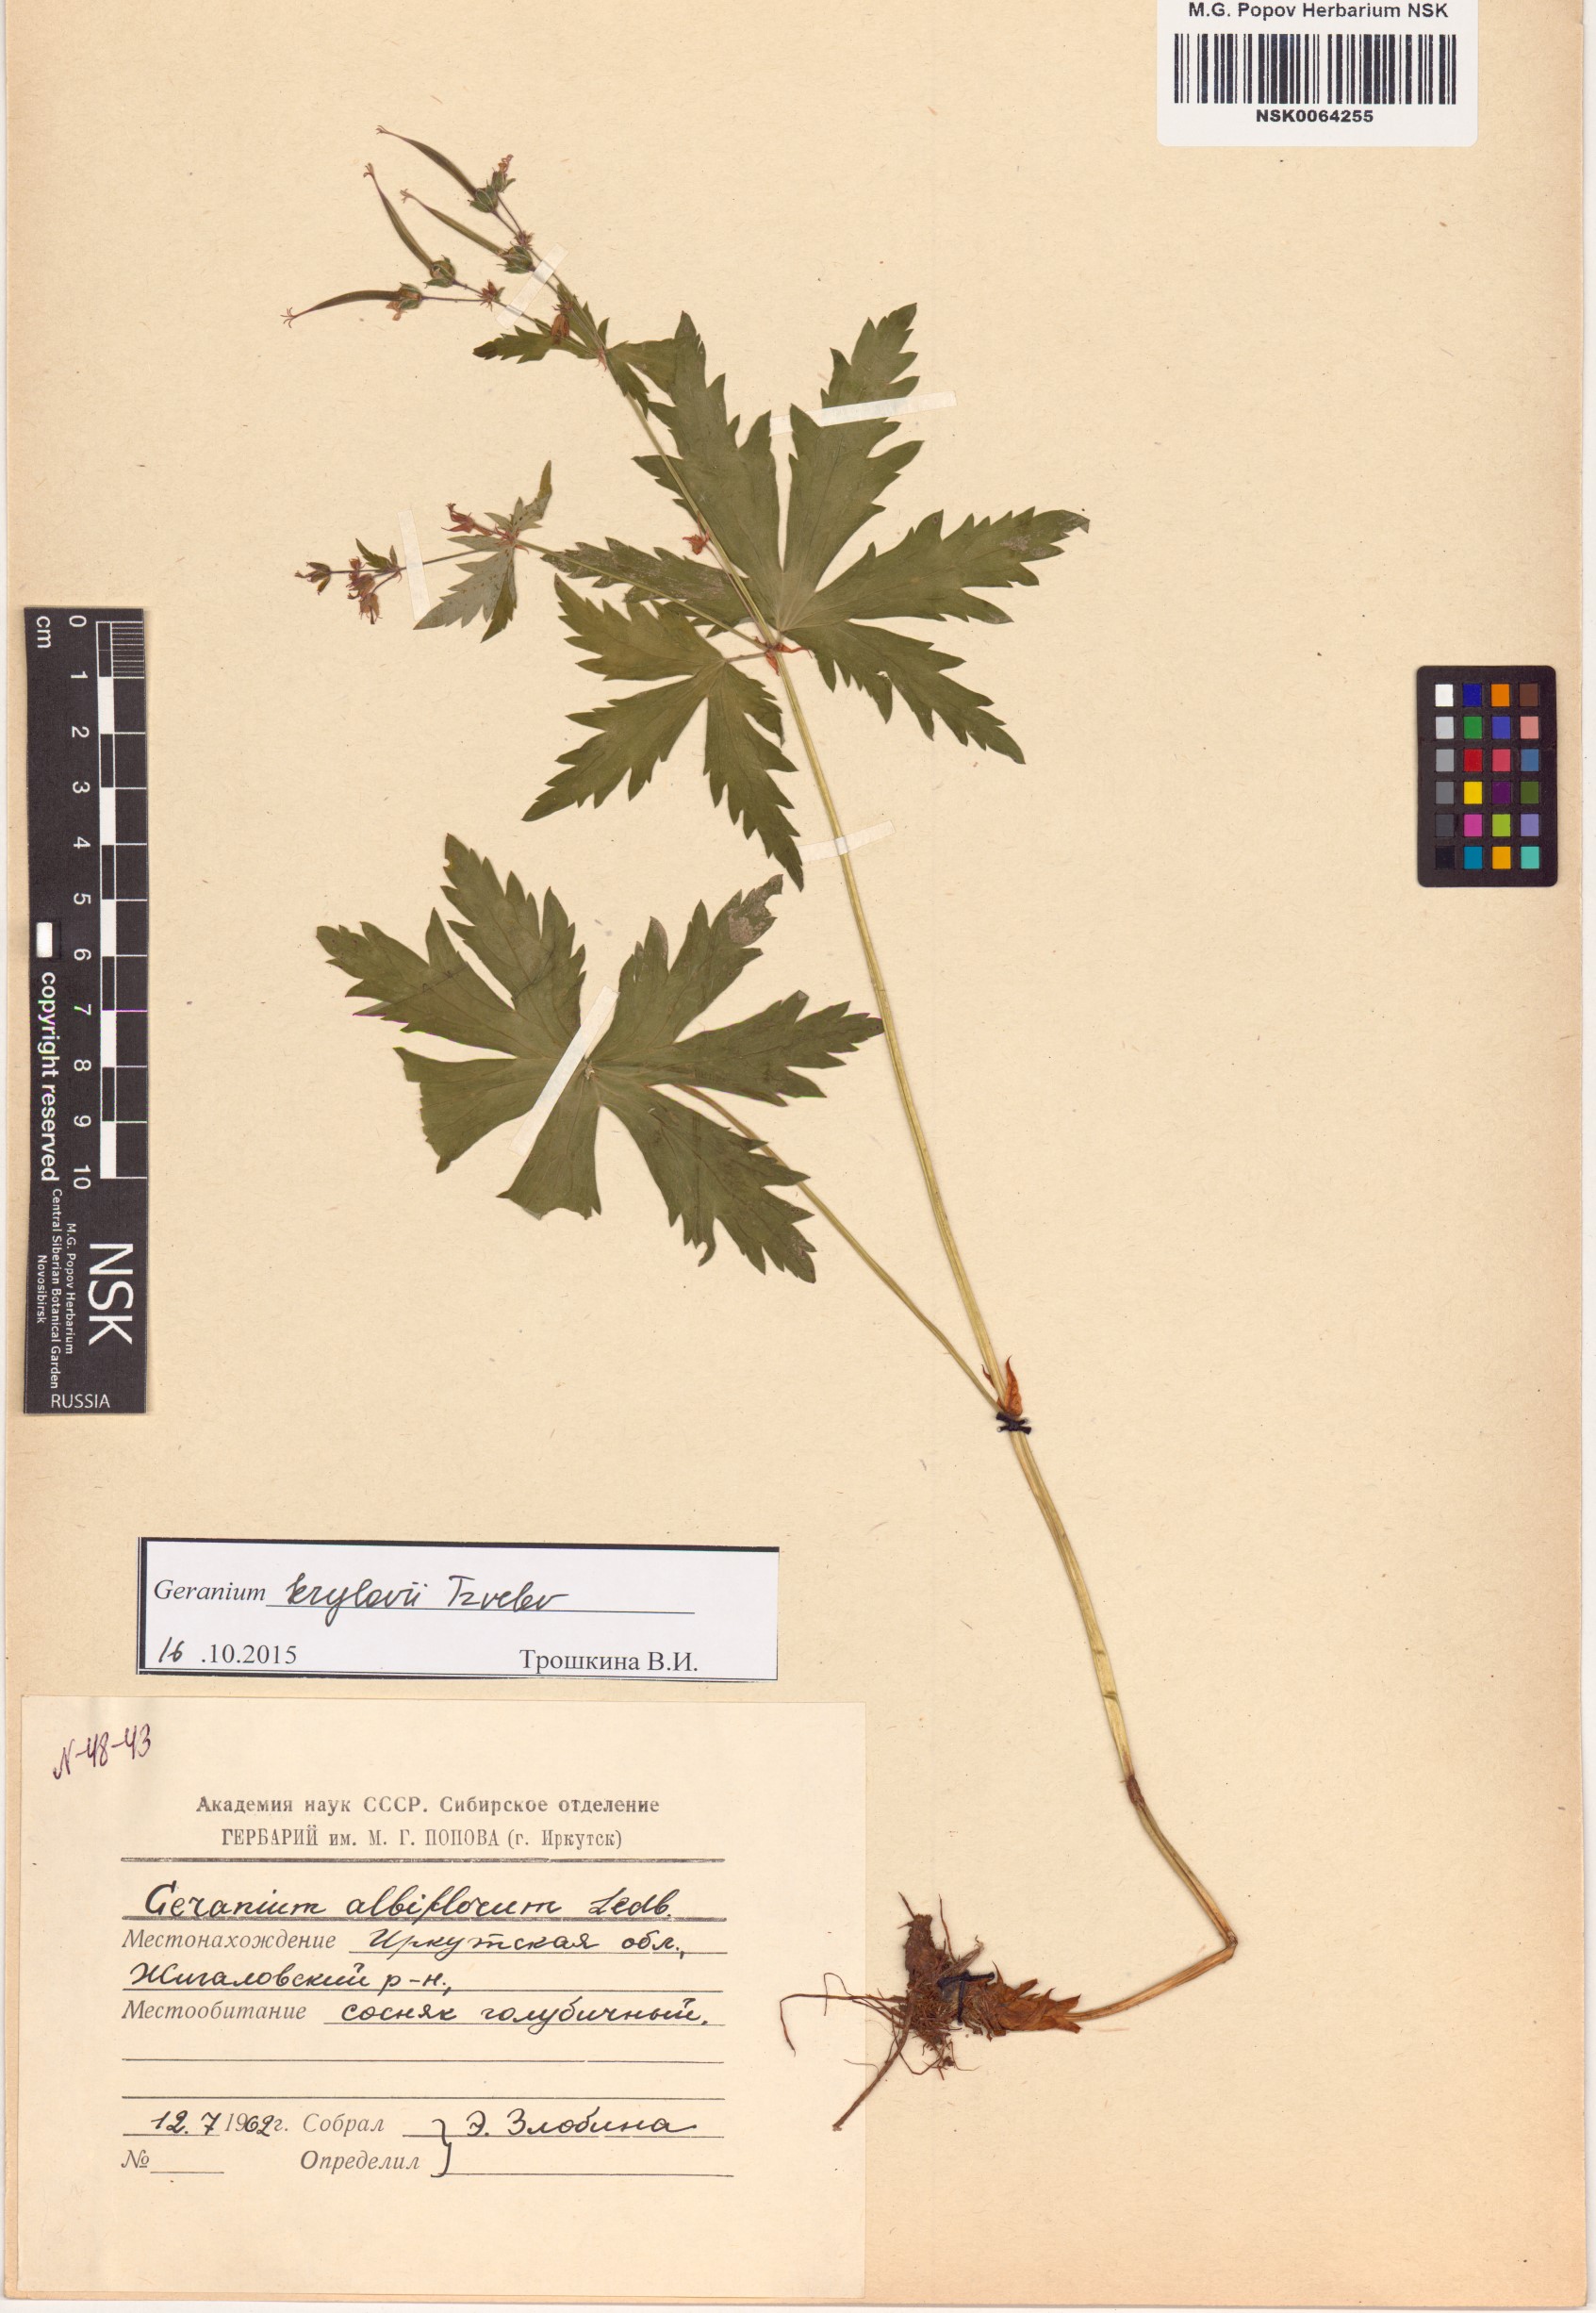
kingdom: Plantae
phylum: Tracheophyta
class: Magnoliopsida
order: Geraniales
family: Geraniaceae
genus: Geranium
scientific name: Geranium sylvaticum
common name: Wood crane's-bill
